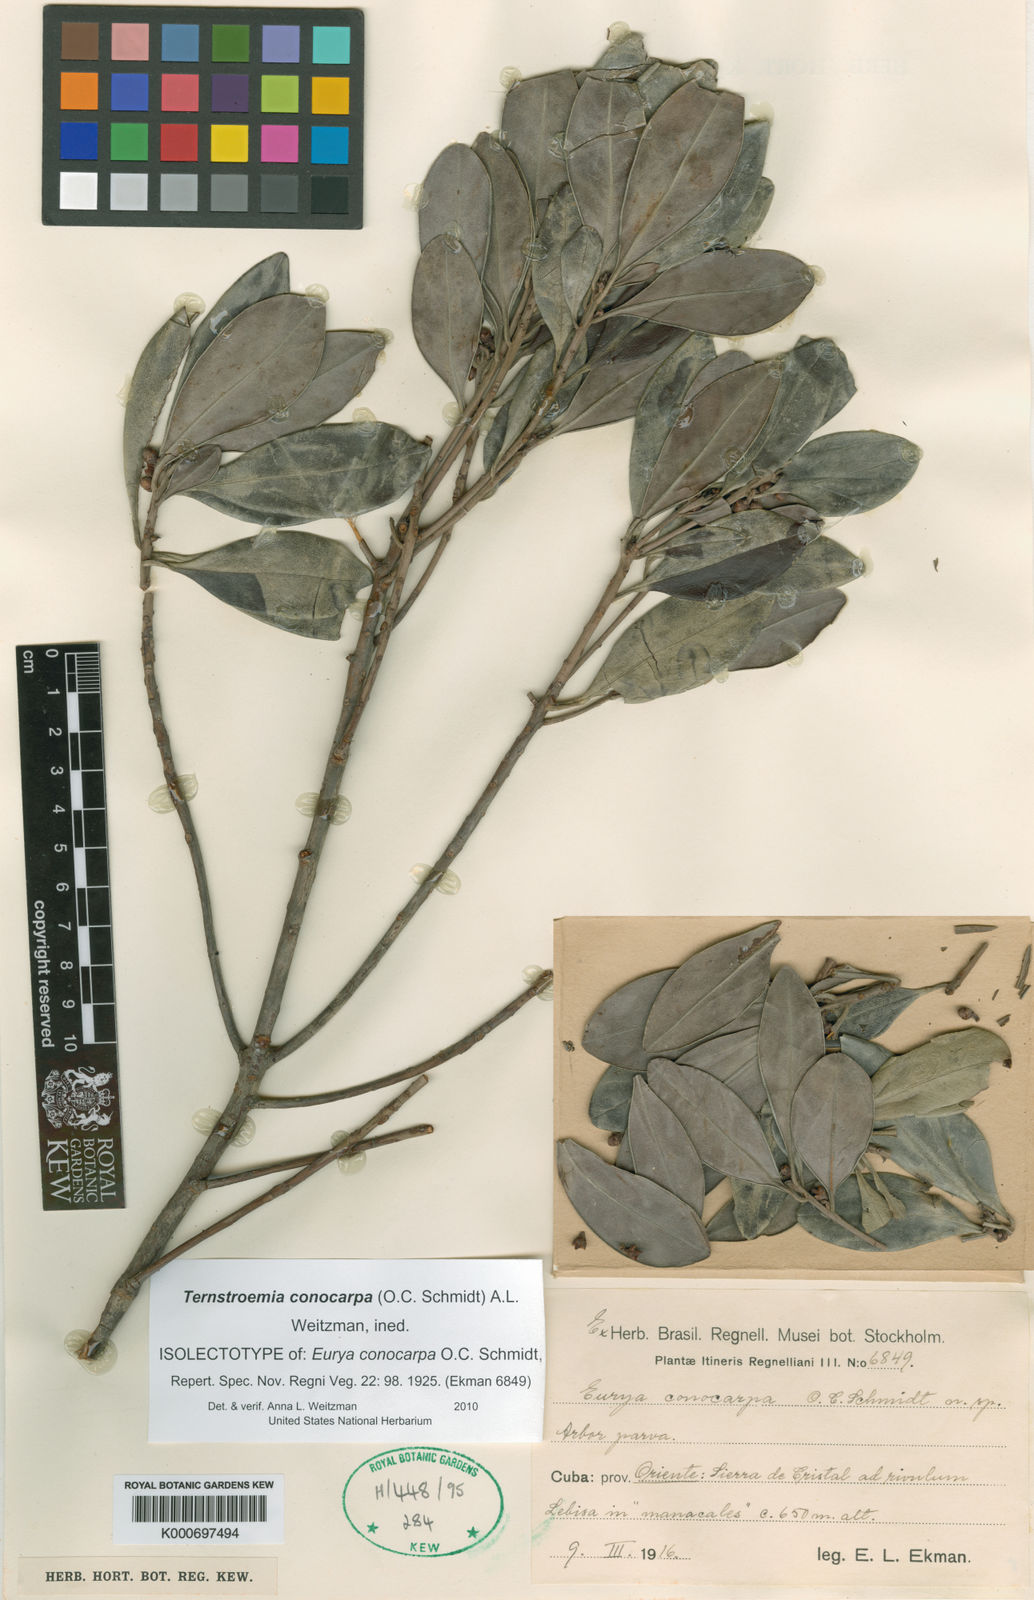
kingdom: Plantae
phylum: Tracheophyta
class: Magnoliopsida
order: Ericales
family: Pentaphylacaceae
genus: Freziera
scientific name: Freziera conocarpa
